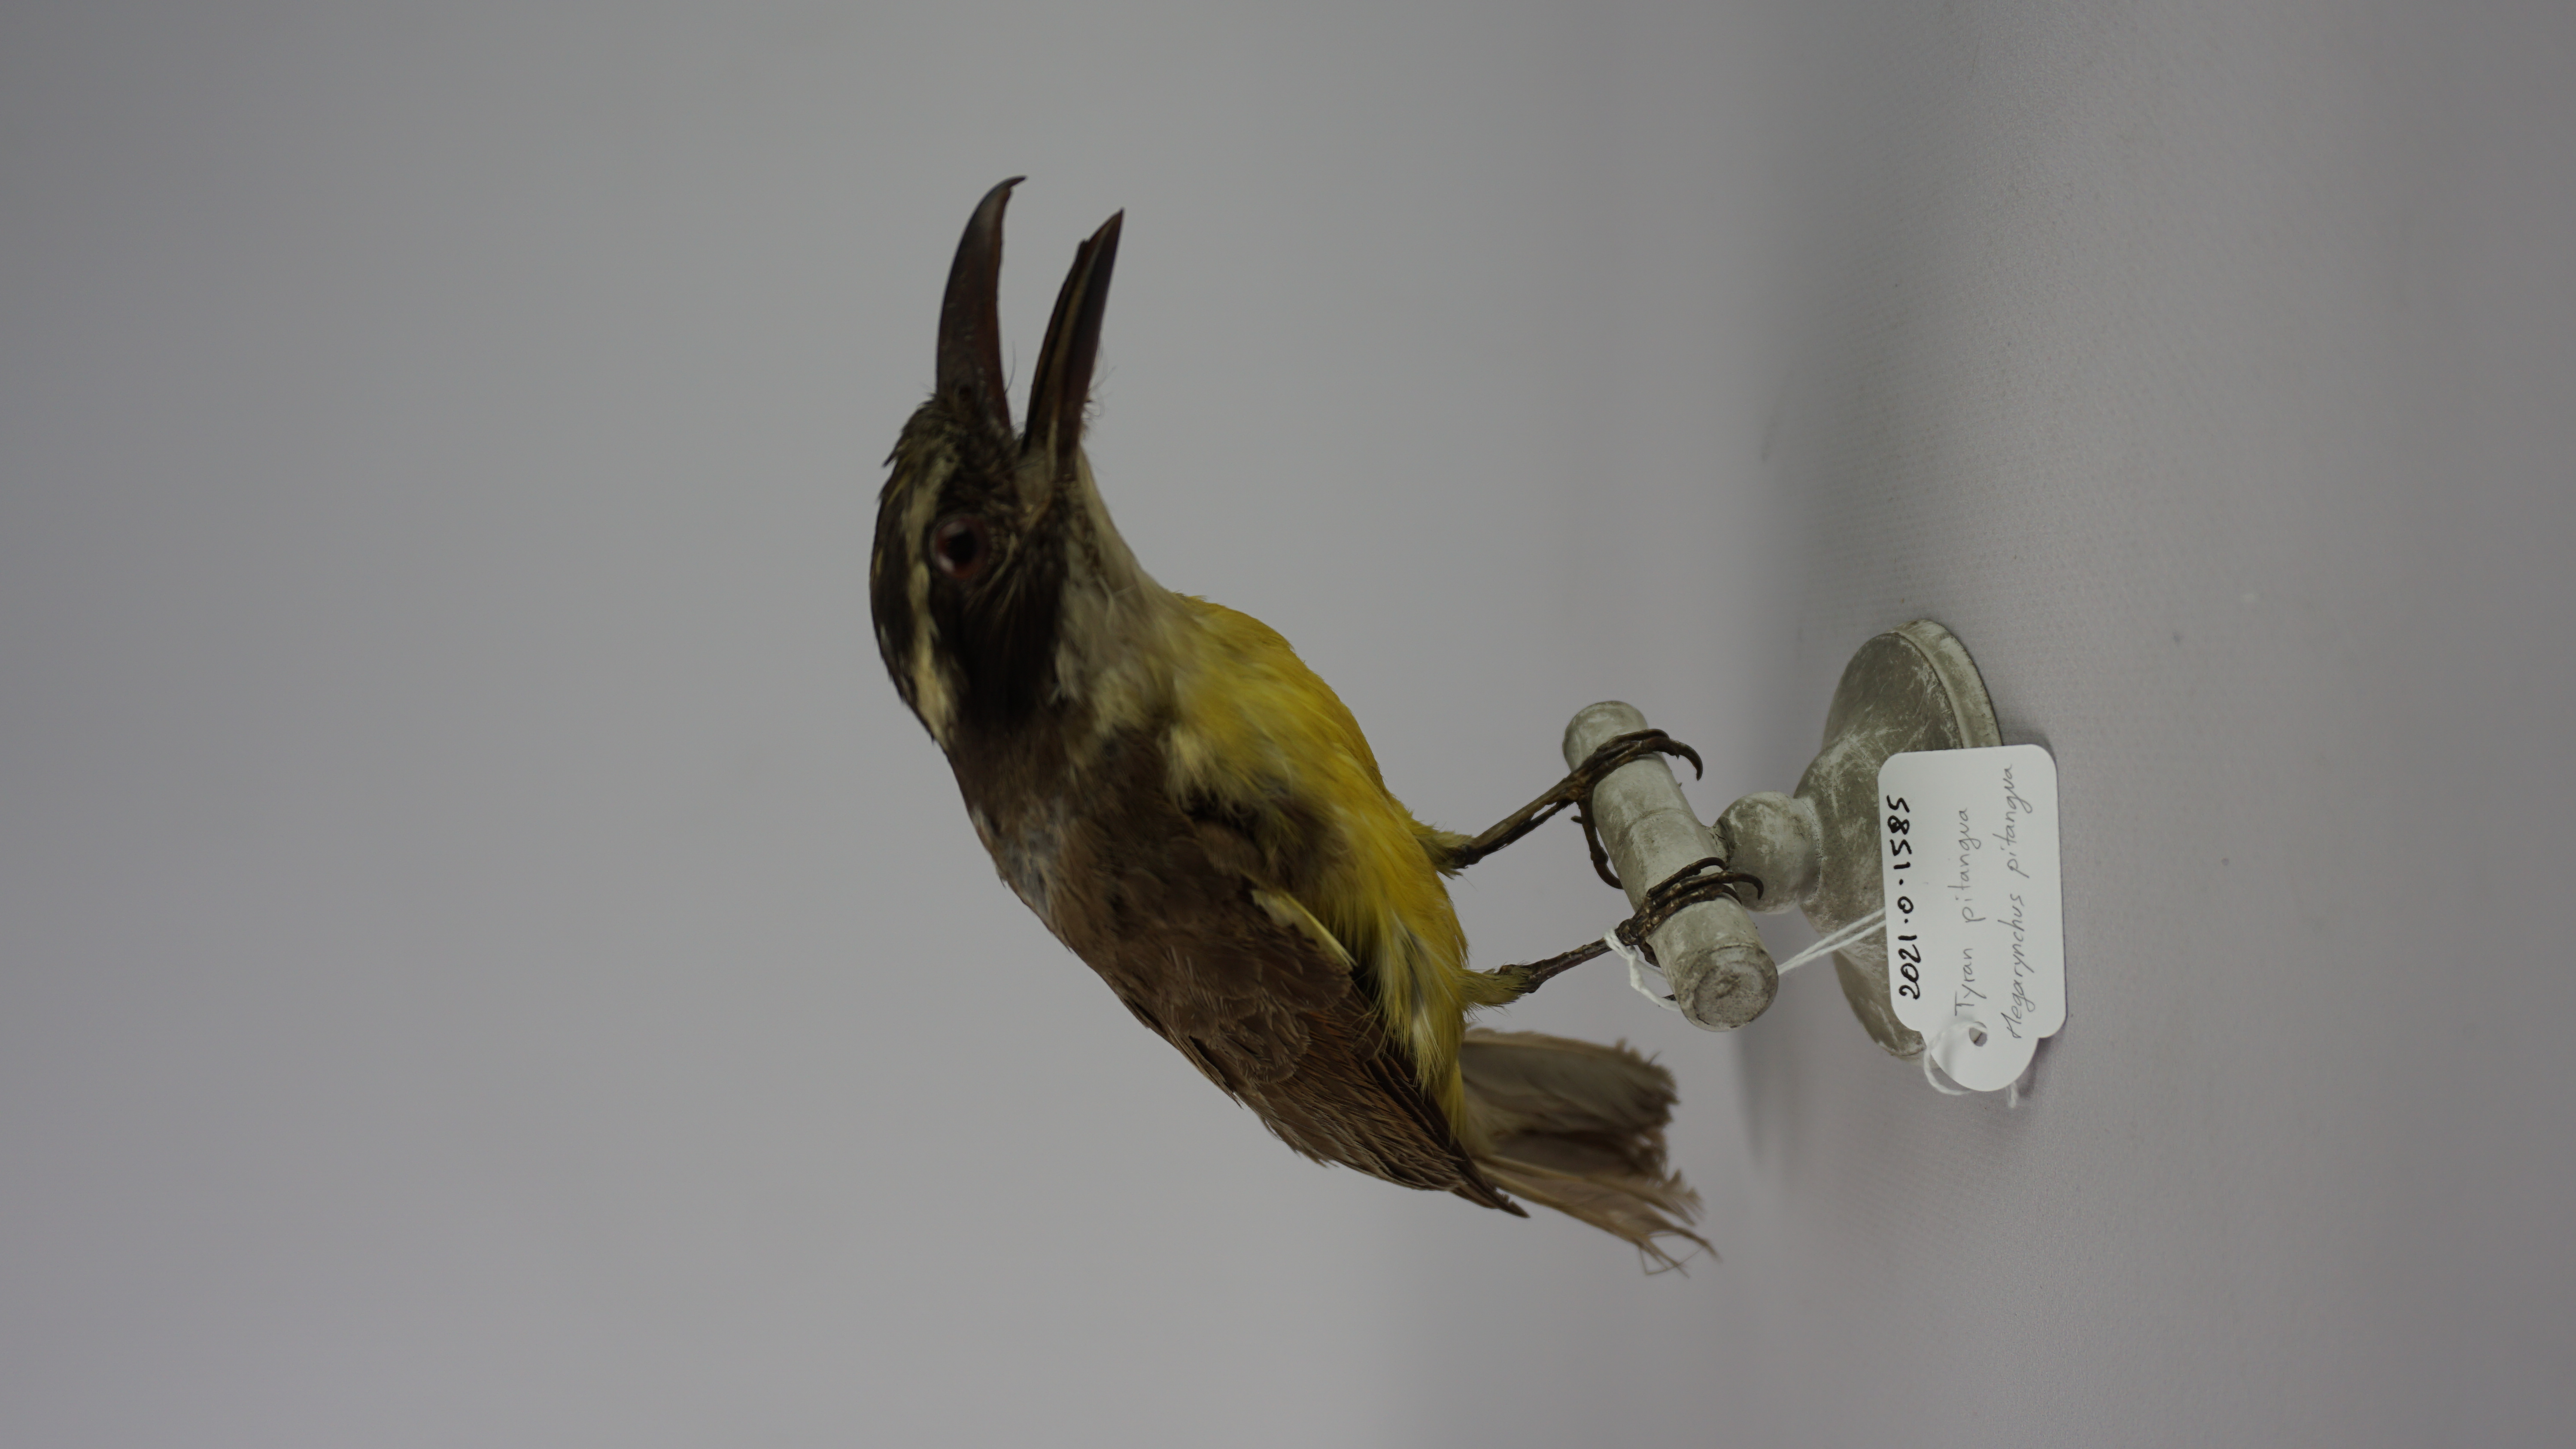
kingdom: Animalia
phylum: Chordata
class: Aves
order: Passeriformes
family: Tyrannidae
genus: Megarynchus
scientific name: Megarynchus pitangua
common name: Boat-billed flycatcher
